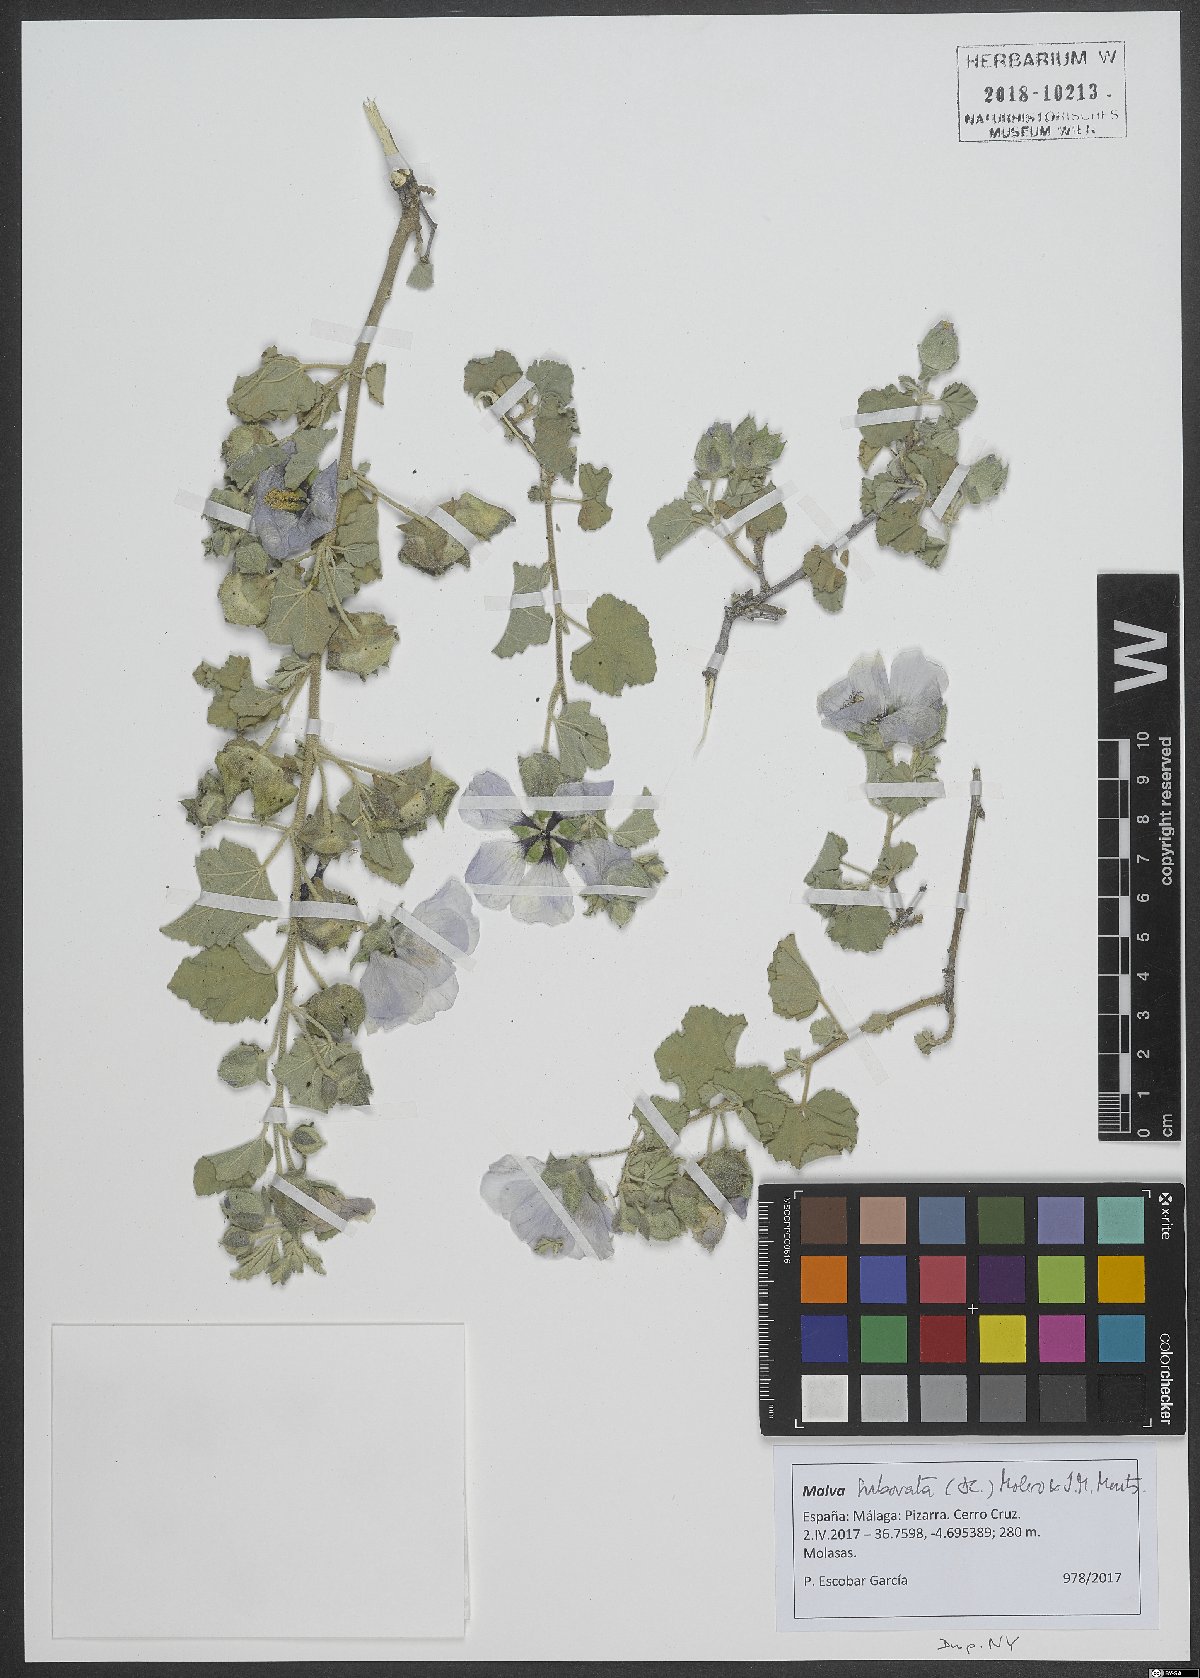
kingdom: Plantae
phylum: Tracheophyta
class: Magnoliopsida
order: Malvales
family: Malvaceae
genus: Malva
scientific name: Malva subovata
